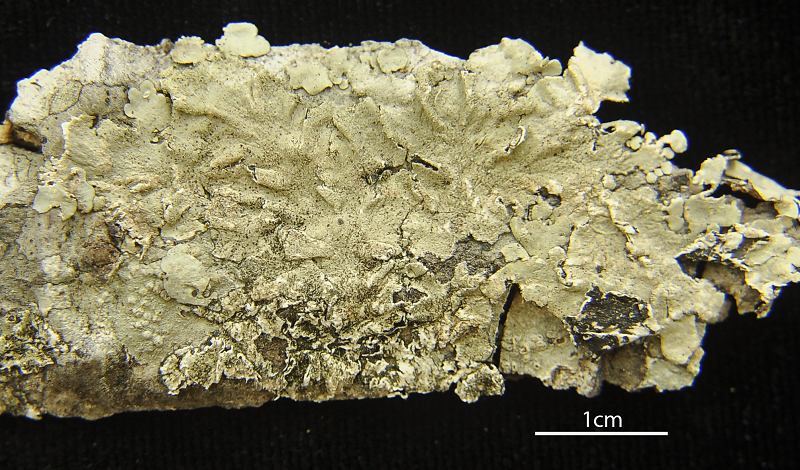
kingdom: Fungi
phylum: Ascomycota
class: Lecanoromycetes
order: Peltigerales
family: Collemataceae
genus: Leptogium
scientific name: Leptogium ulvaceum
